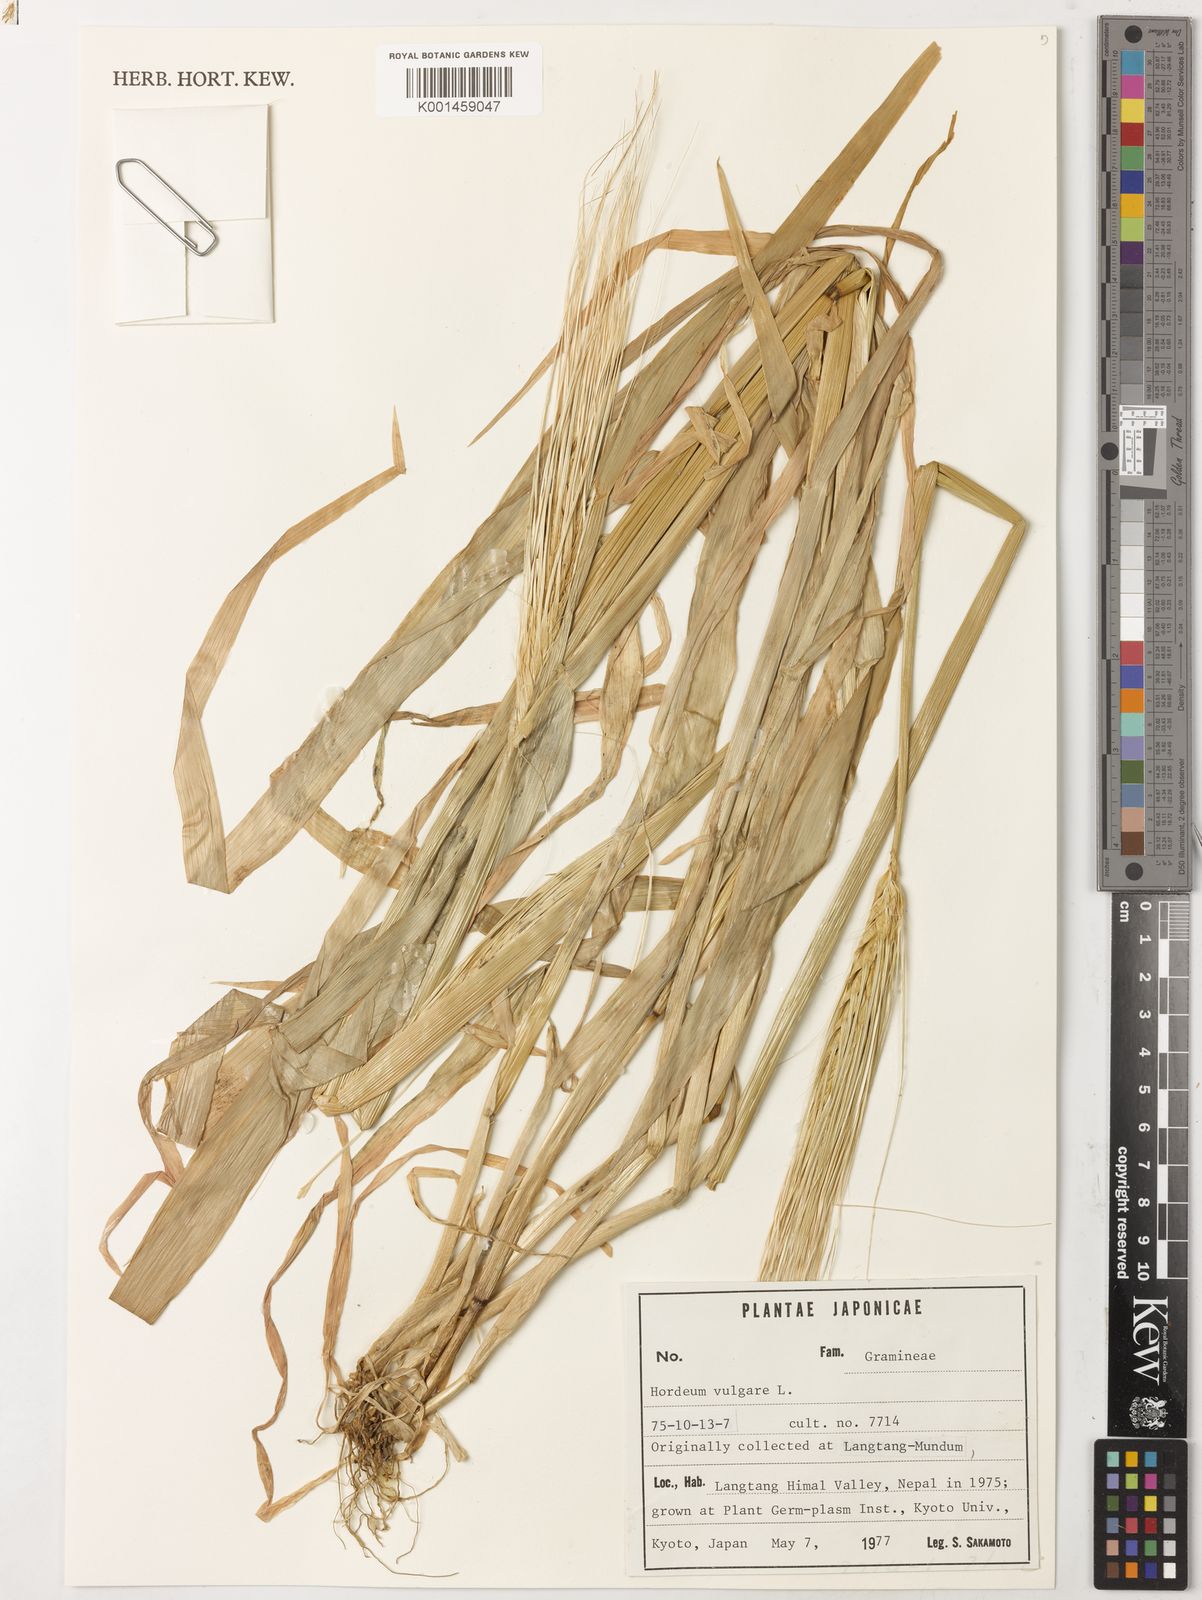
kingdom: Plantae
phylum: Tracheophyta
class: Liliopsida
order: Poales
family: Poaceae
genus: Hordeum
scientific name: Hordeum vulgare
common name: Common barley
